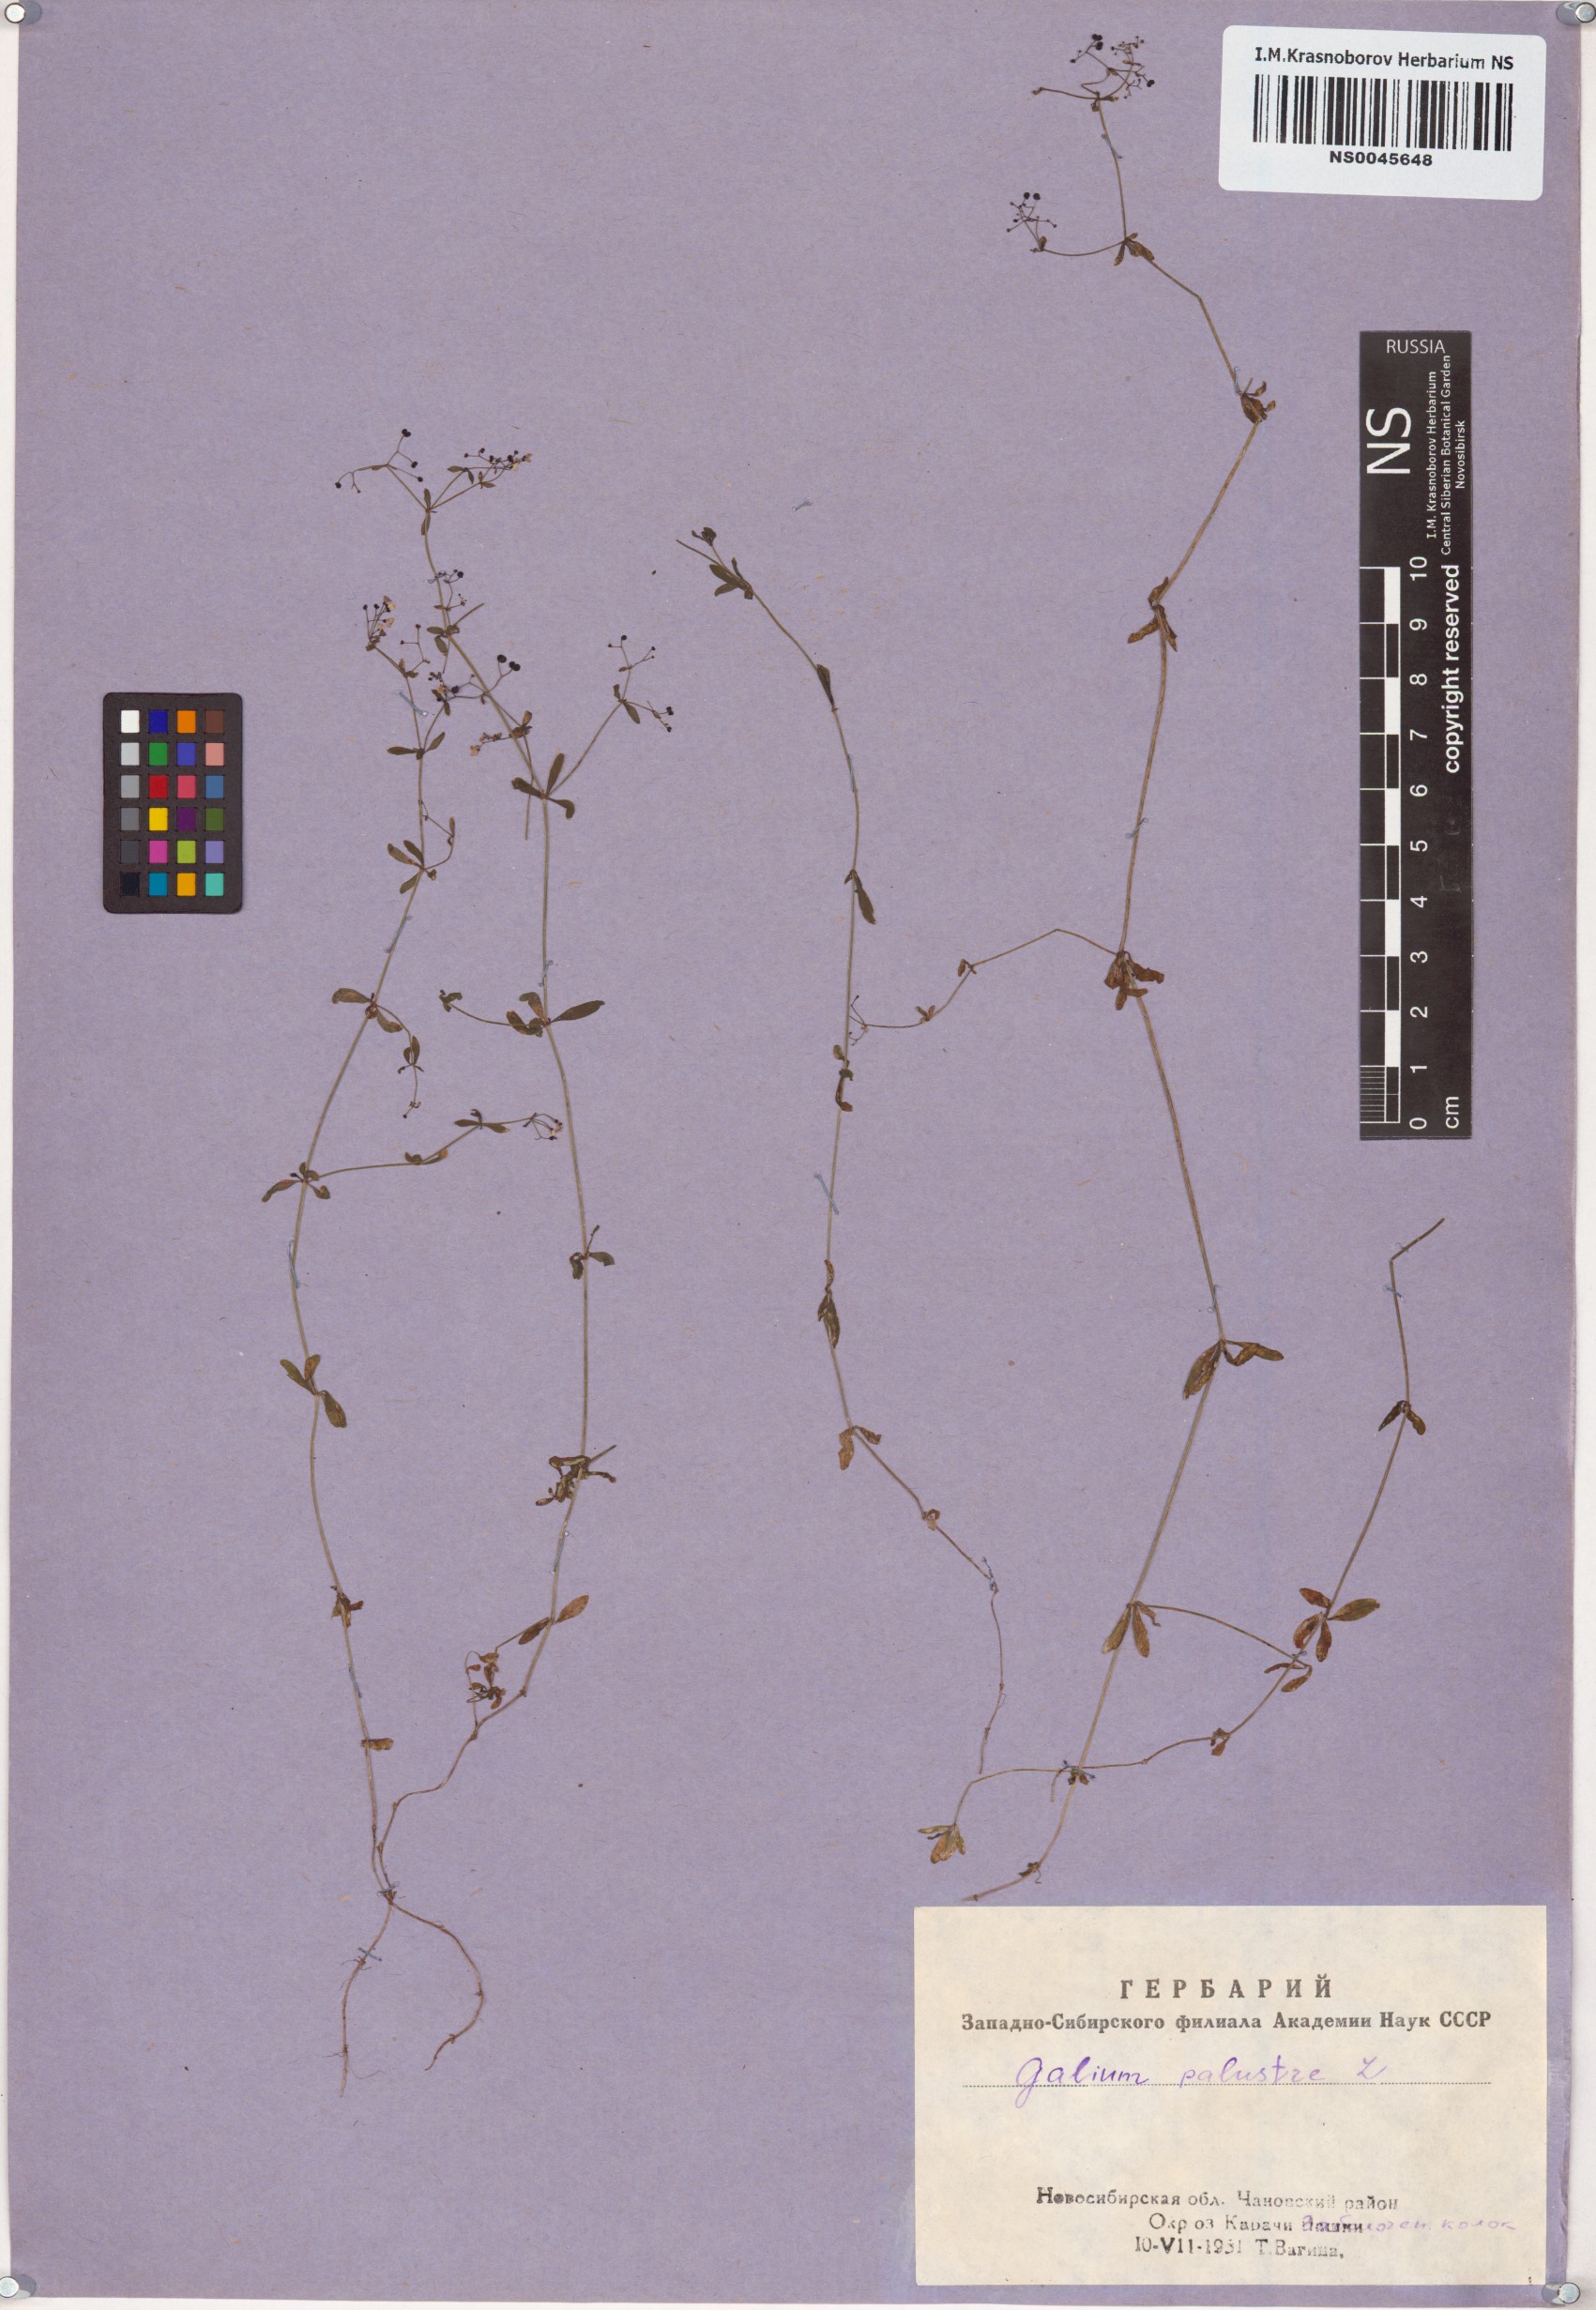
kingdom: Plantae
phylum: Tracheophyta
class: Magnoliopsida
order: Gentianales
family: Rubiaceae
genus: Galium
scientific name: Galium palustre
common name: Common marsh-bedstraw
